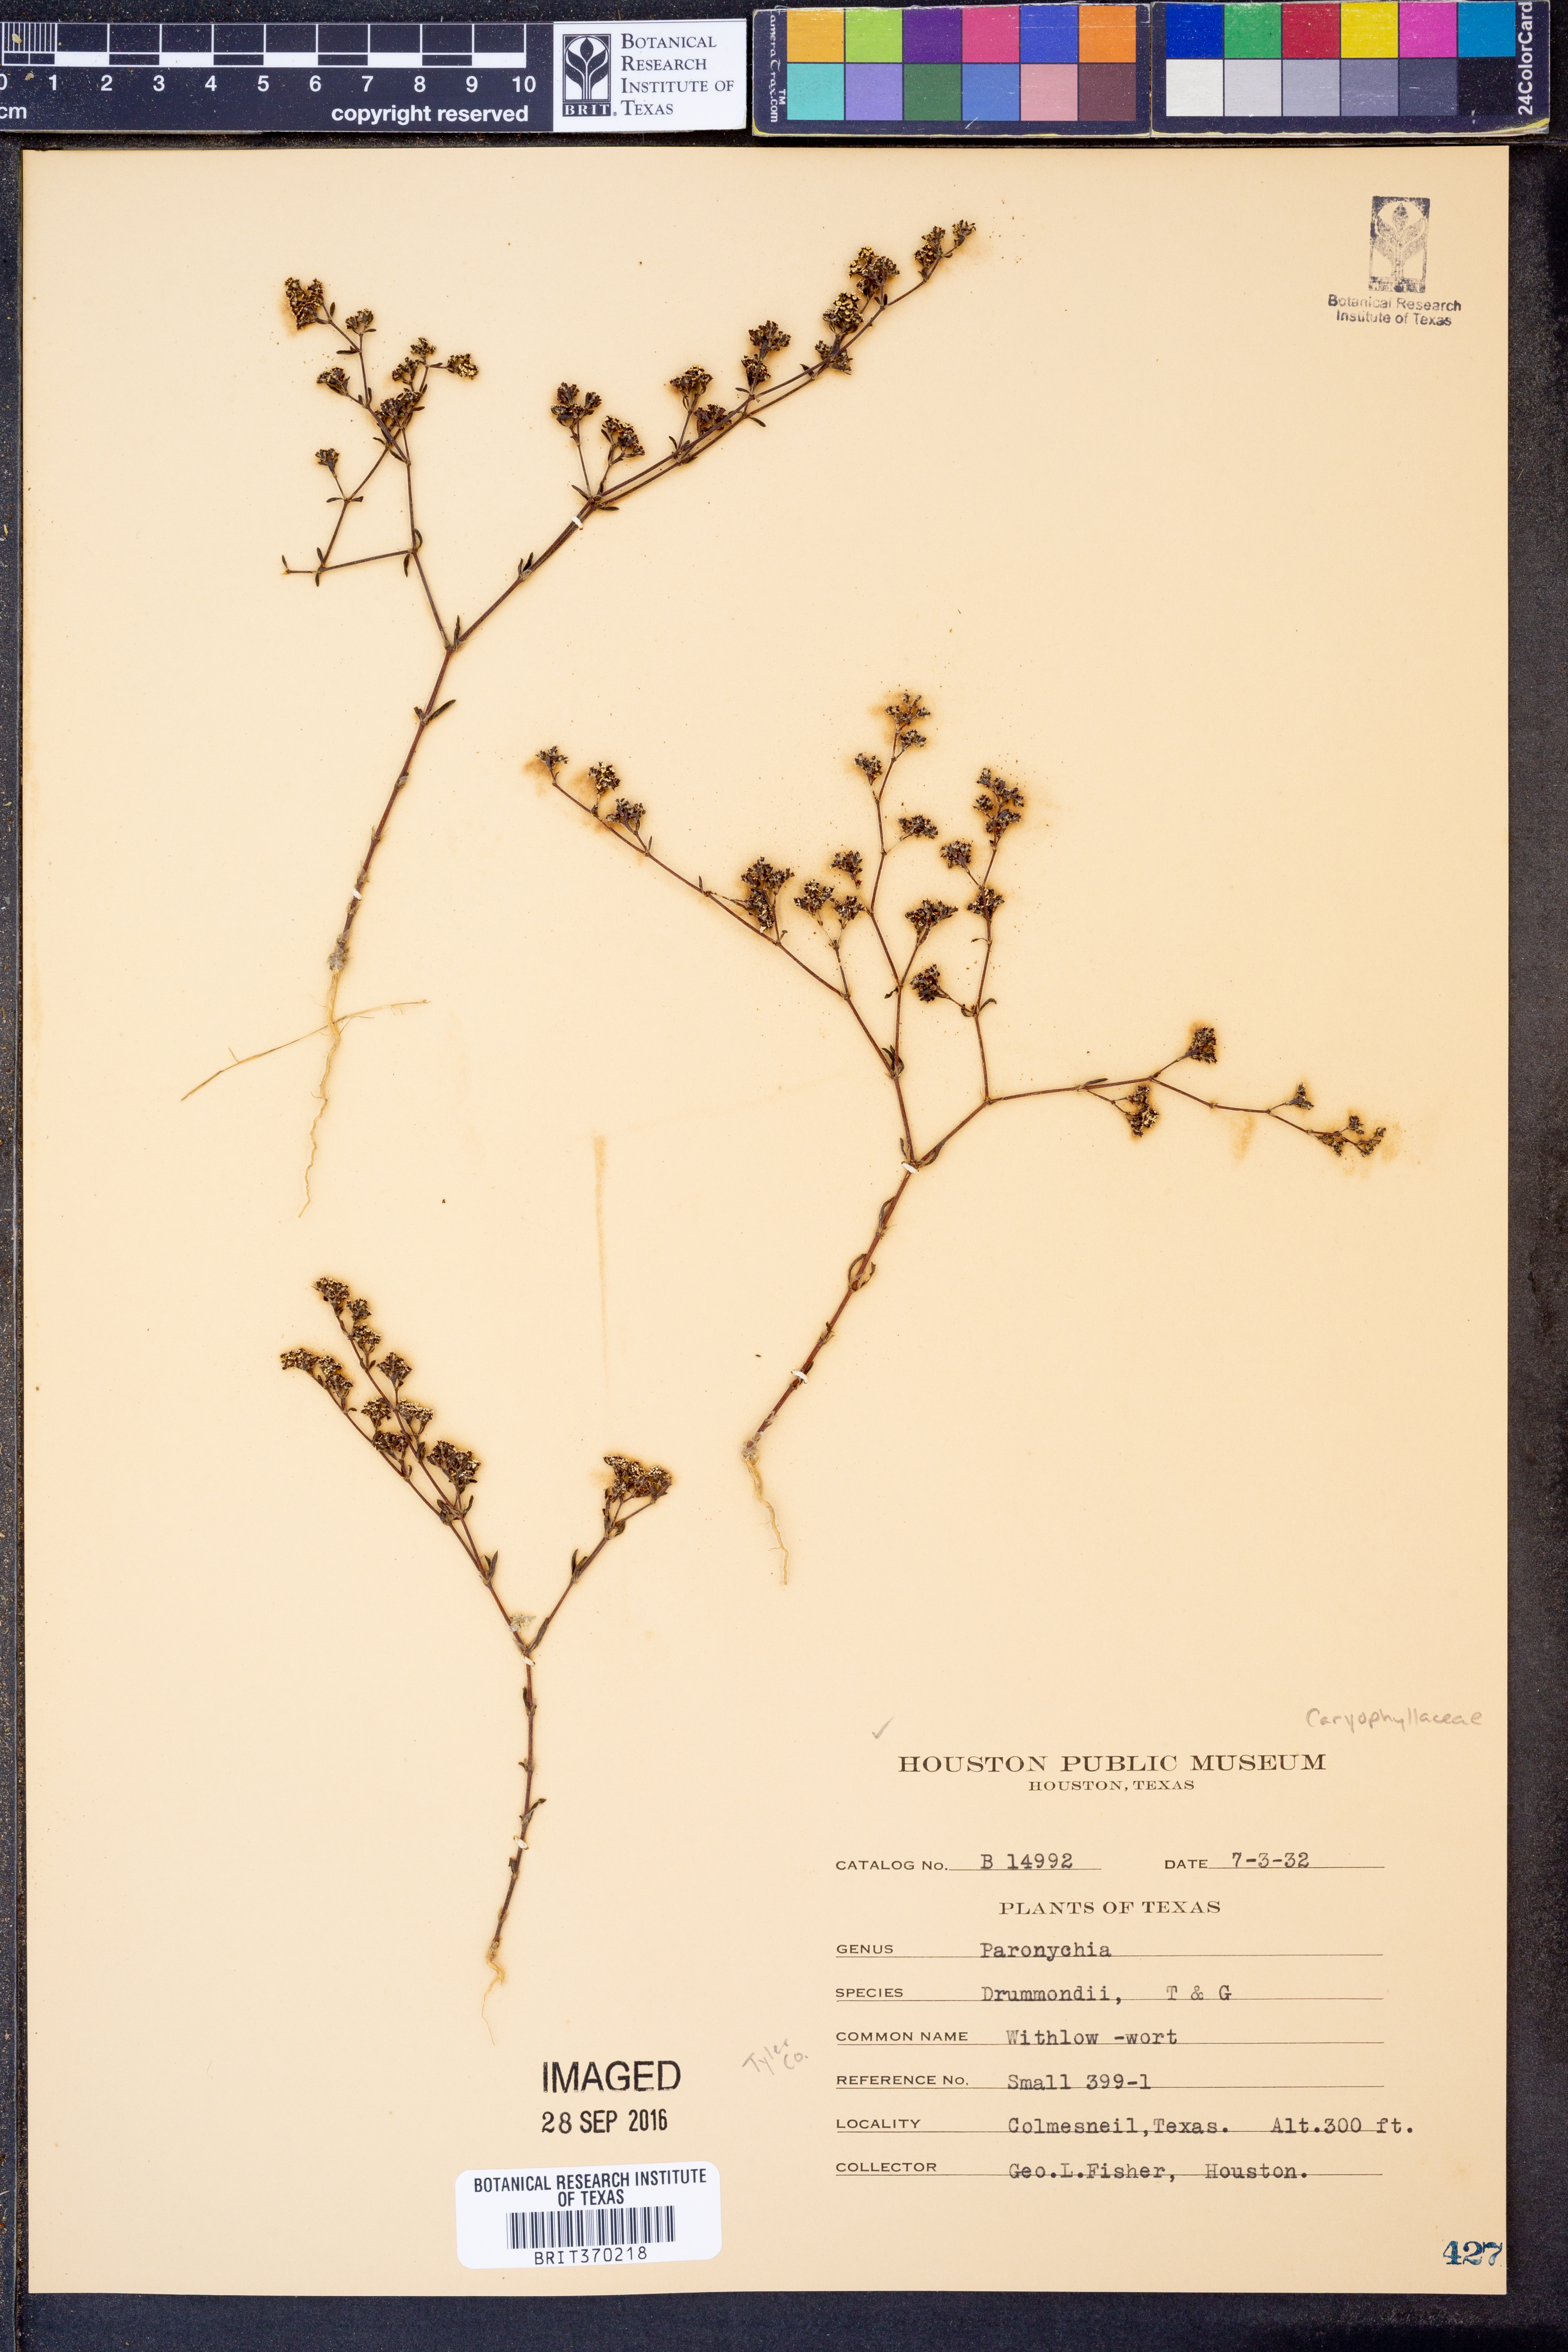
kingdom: Plantae
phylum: Tracheophyta
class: Magnoliopsida
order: Caryophyllales
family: Caryophyllaceae
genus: Paronychia
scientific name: Paronychia drummondii
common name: Drummond's nailwort
